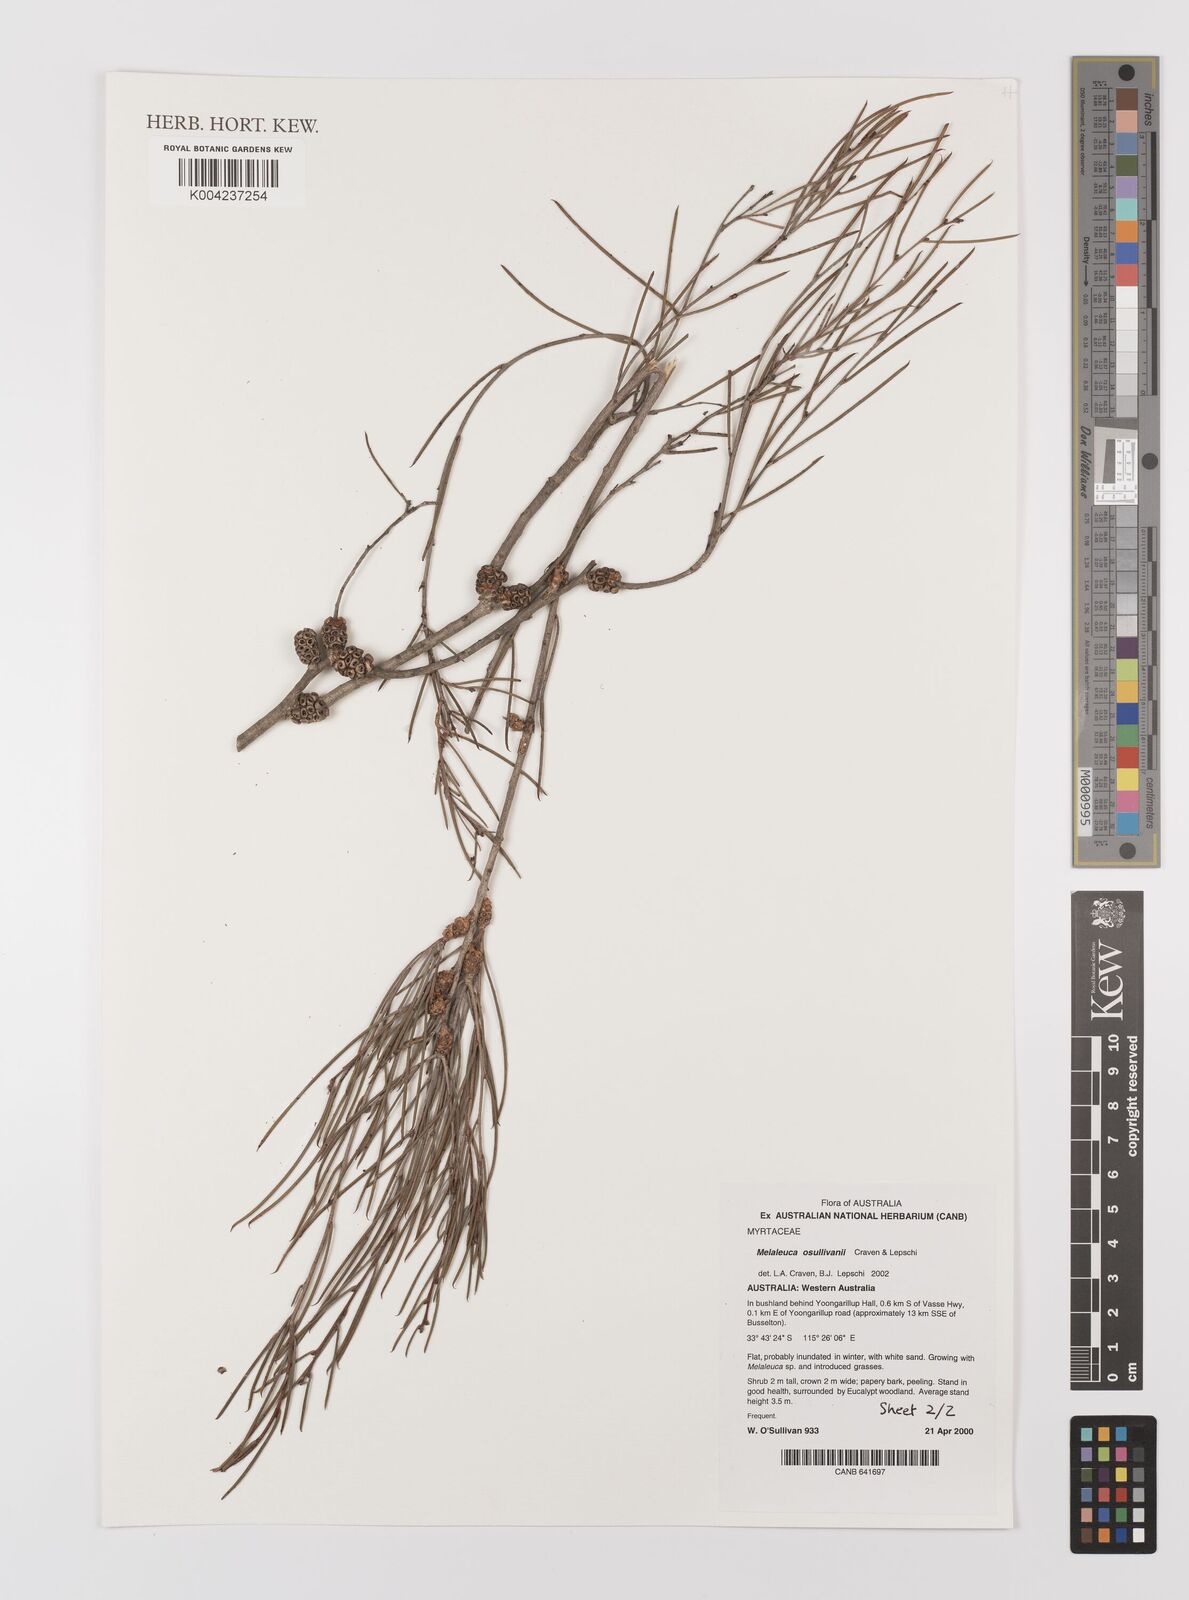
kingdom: Plantae
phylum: Tracheophyta
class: Magnoliopsida
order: Myrtales
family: Myrtaceae
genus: Melaleuca
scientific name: Melaleuca osullivanii
